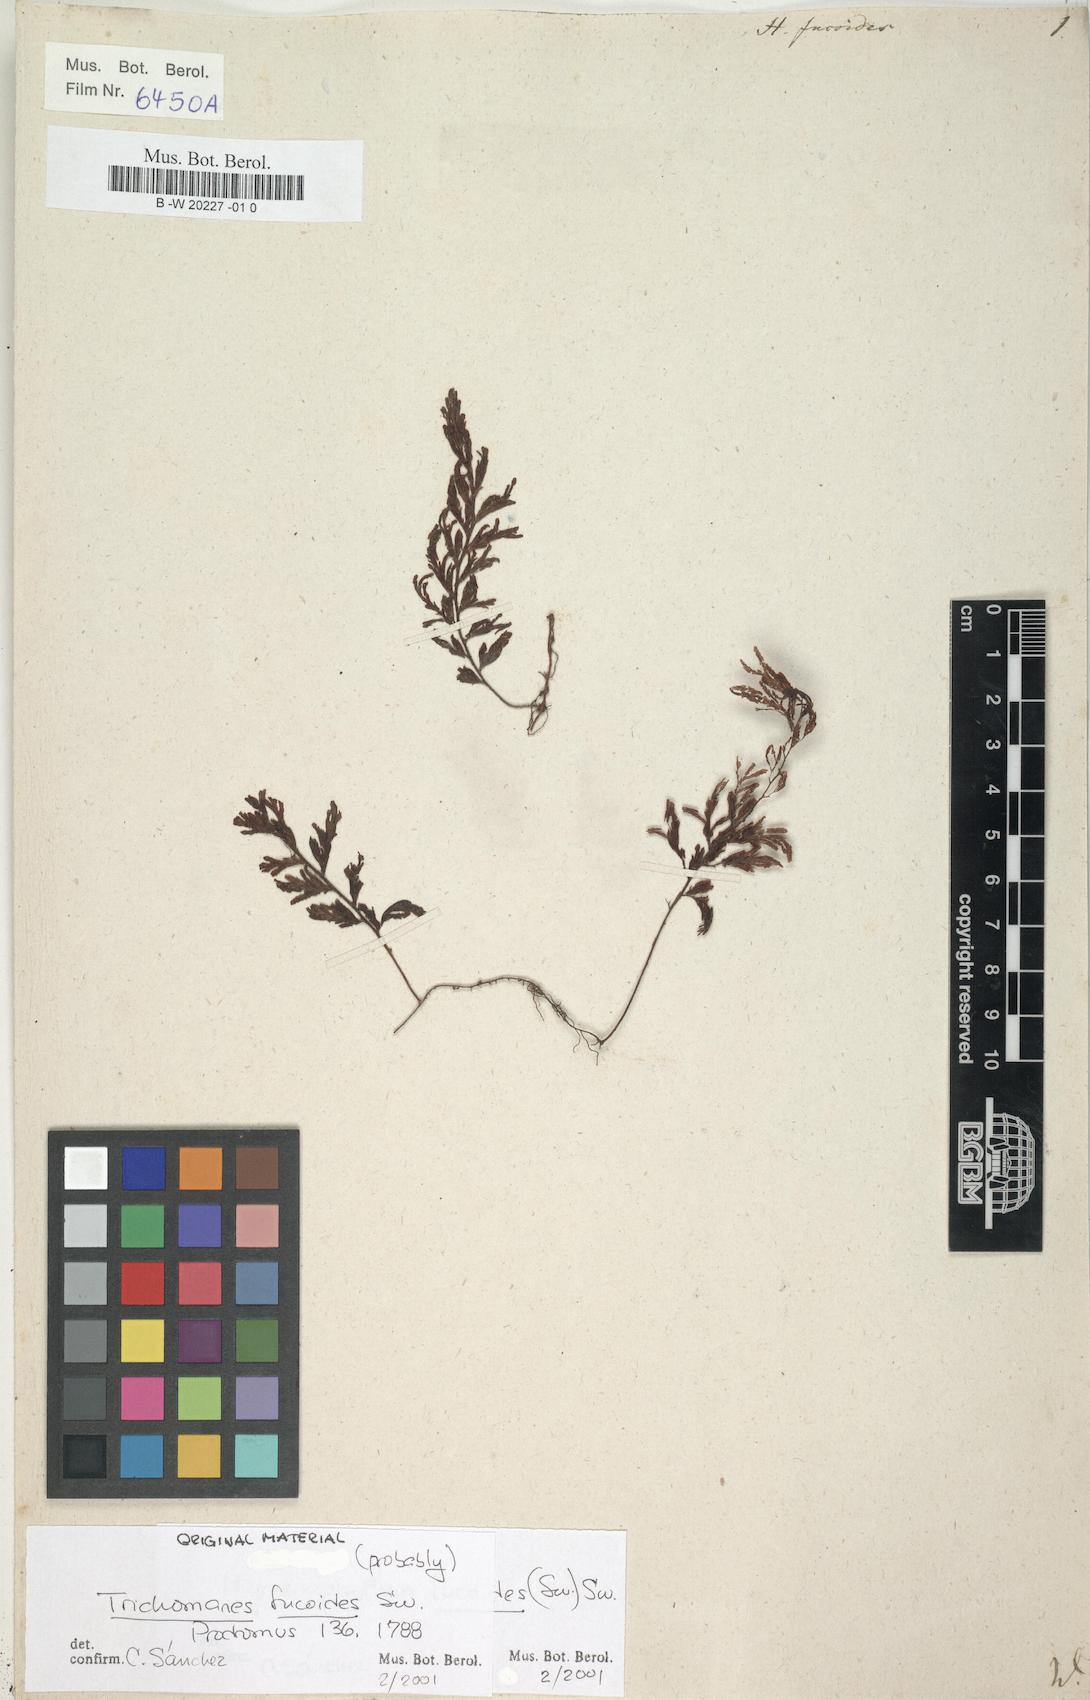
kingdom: Plantae
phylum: Tracheophyta
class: Polypodiopsida
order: Hymenophyllales
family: Hymenophyllaceae
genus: Hymenophyllum
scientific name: Hymenophyllum fucoides
